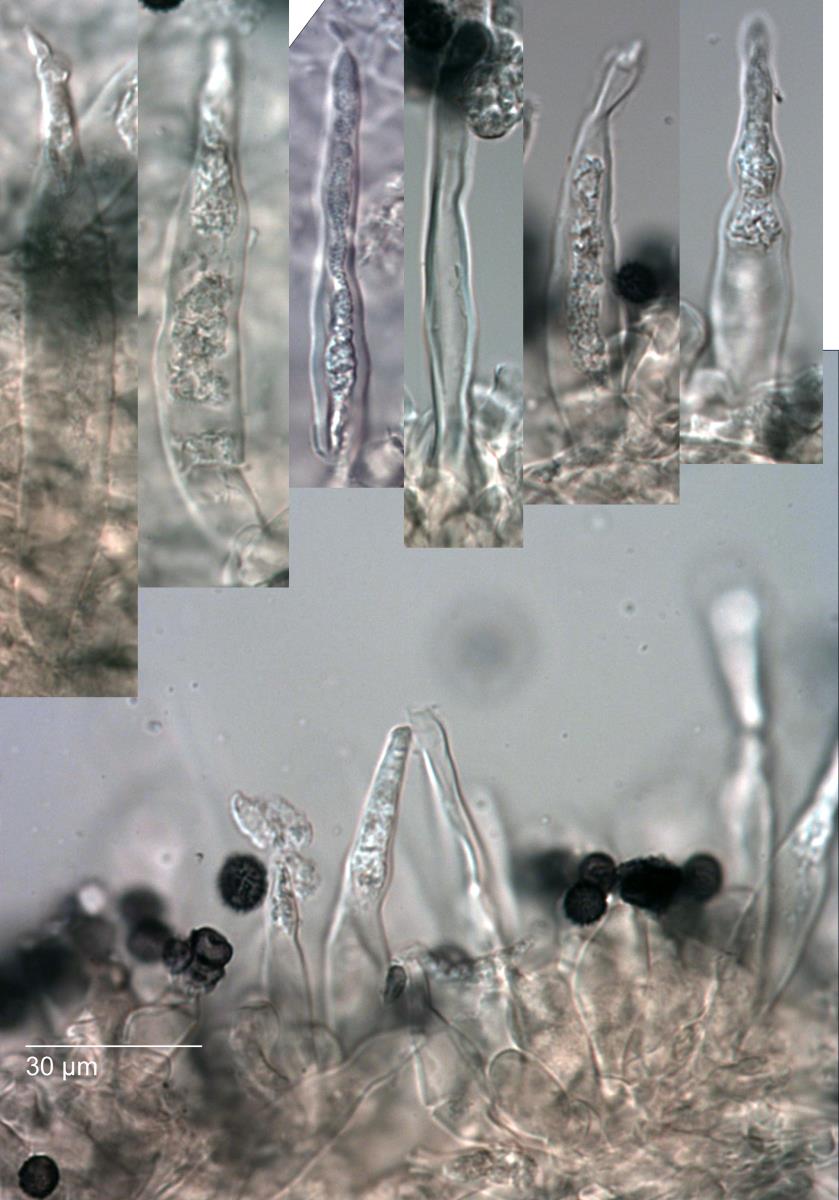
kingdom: Fungi
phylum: Basidiomycota
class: Agaricomycetes
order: Russulales
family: Russulaceae
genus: Russula
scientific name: Russula macrocystidiata
